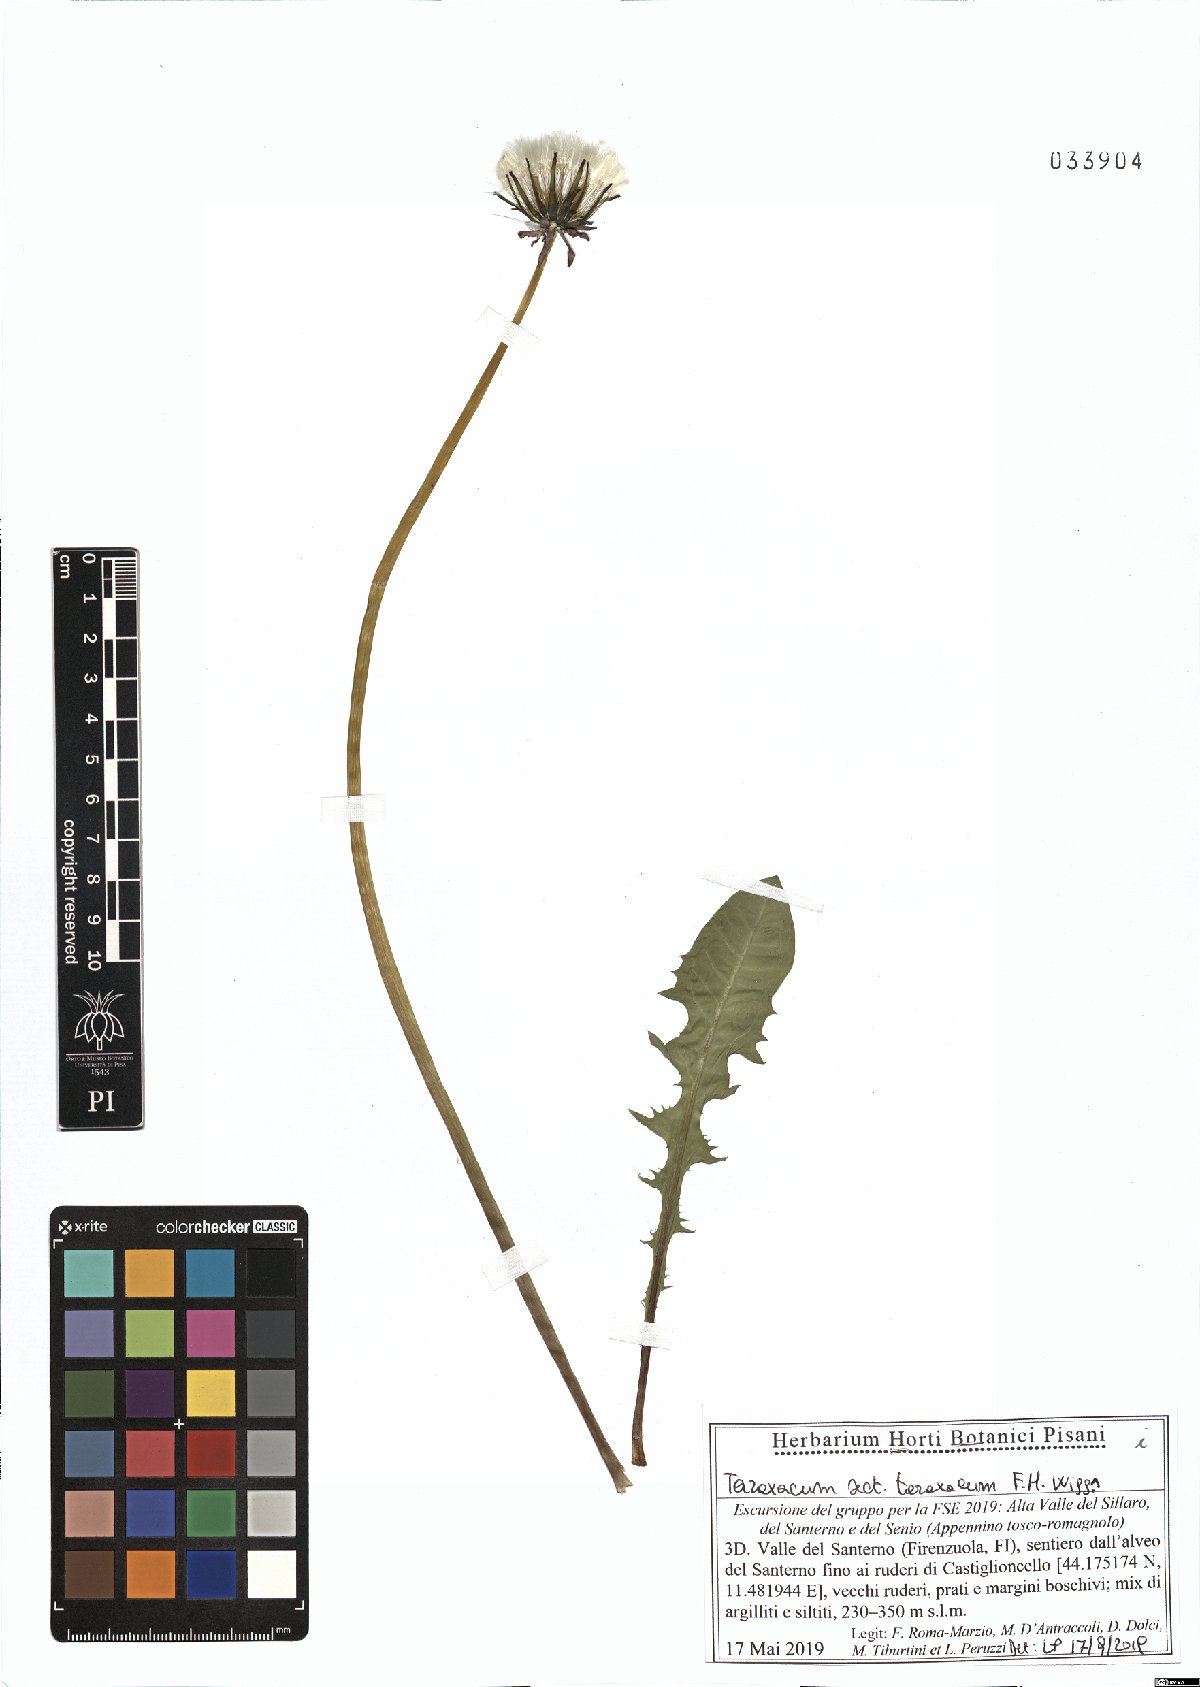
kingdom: Plantae
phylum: Tracheophyta
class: Magnoliopsida
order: Asterales
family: Asteraceae
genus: Taraxacum
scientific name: Taraxacum officinale
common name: Common dandelion
